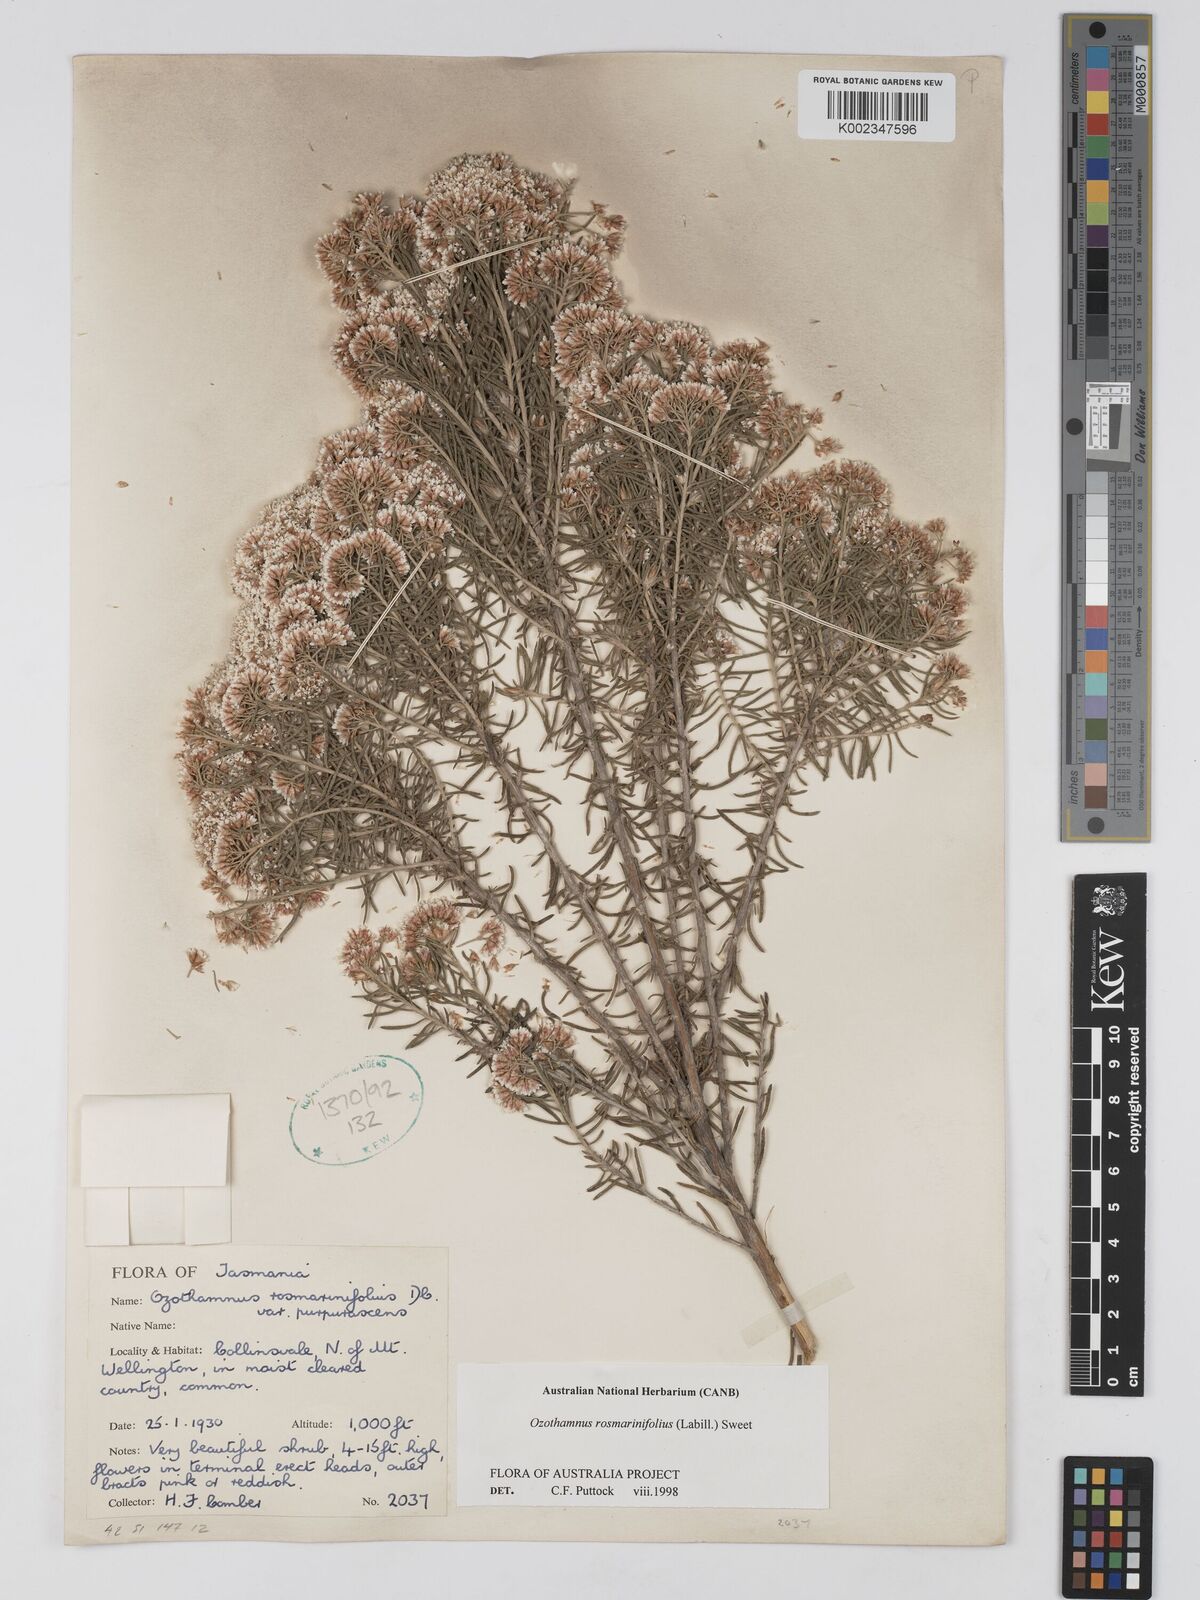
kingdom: Plantae
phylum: Tracheophyta
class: Magnoliopsida
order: Asterales
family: Asteraceae
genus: Ozothamnus
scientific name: Ozothamnus rosmarinifolius
